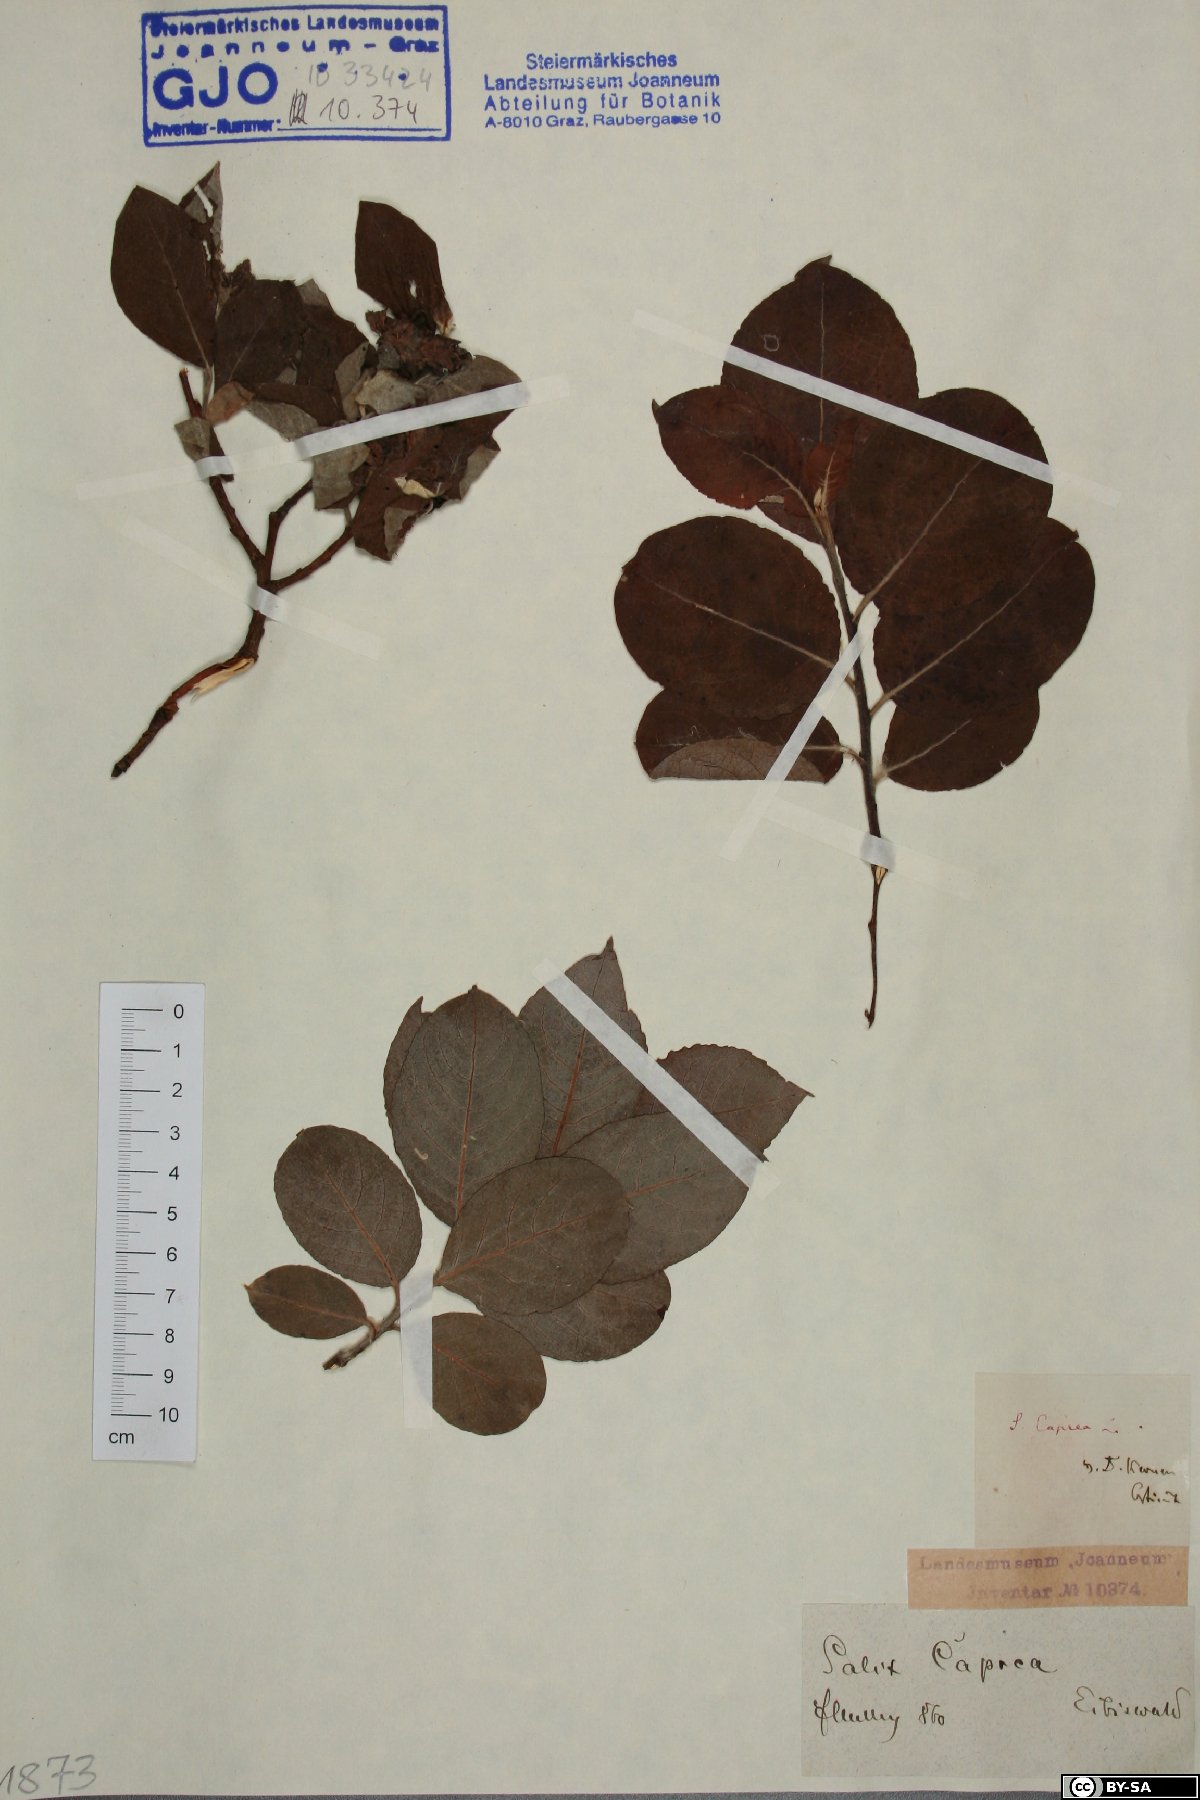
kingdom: Plantae
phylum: Tracheophyta
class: Magnoliopsida
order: Malpighiales
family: Salicaceae
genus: Salix
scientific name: Salix caprea
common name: Goat willow
